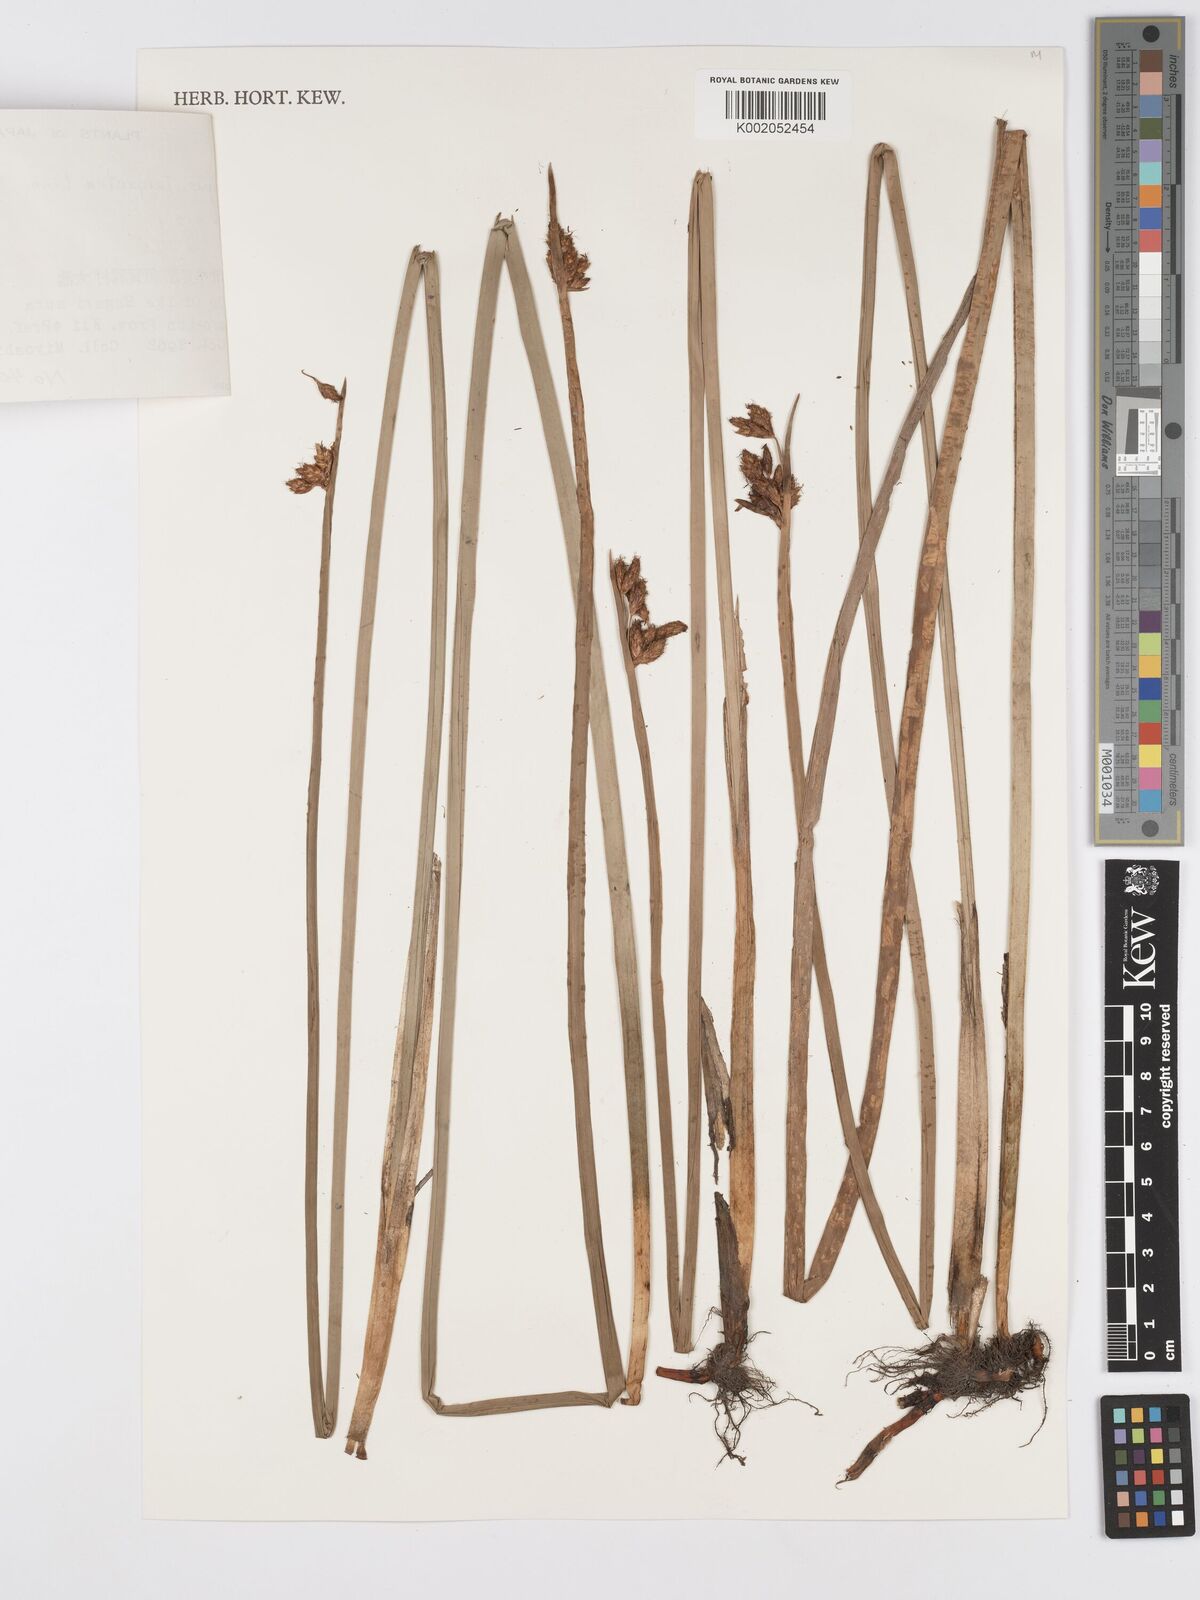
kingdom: Plantae
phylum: Tracheophyta
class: Liliopsida
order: Poales
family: Cyperaceae
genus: Schoenoplectus
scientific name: Schoenoplectus triqueter
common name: Triangular club-rush
